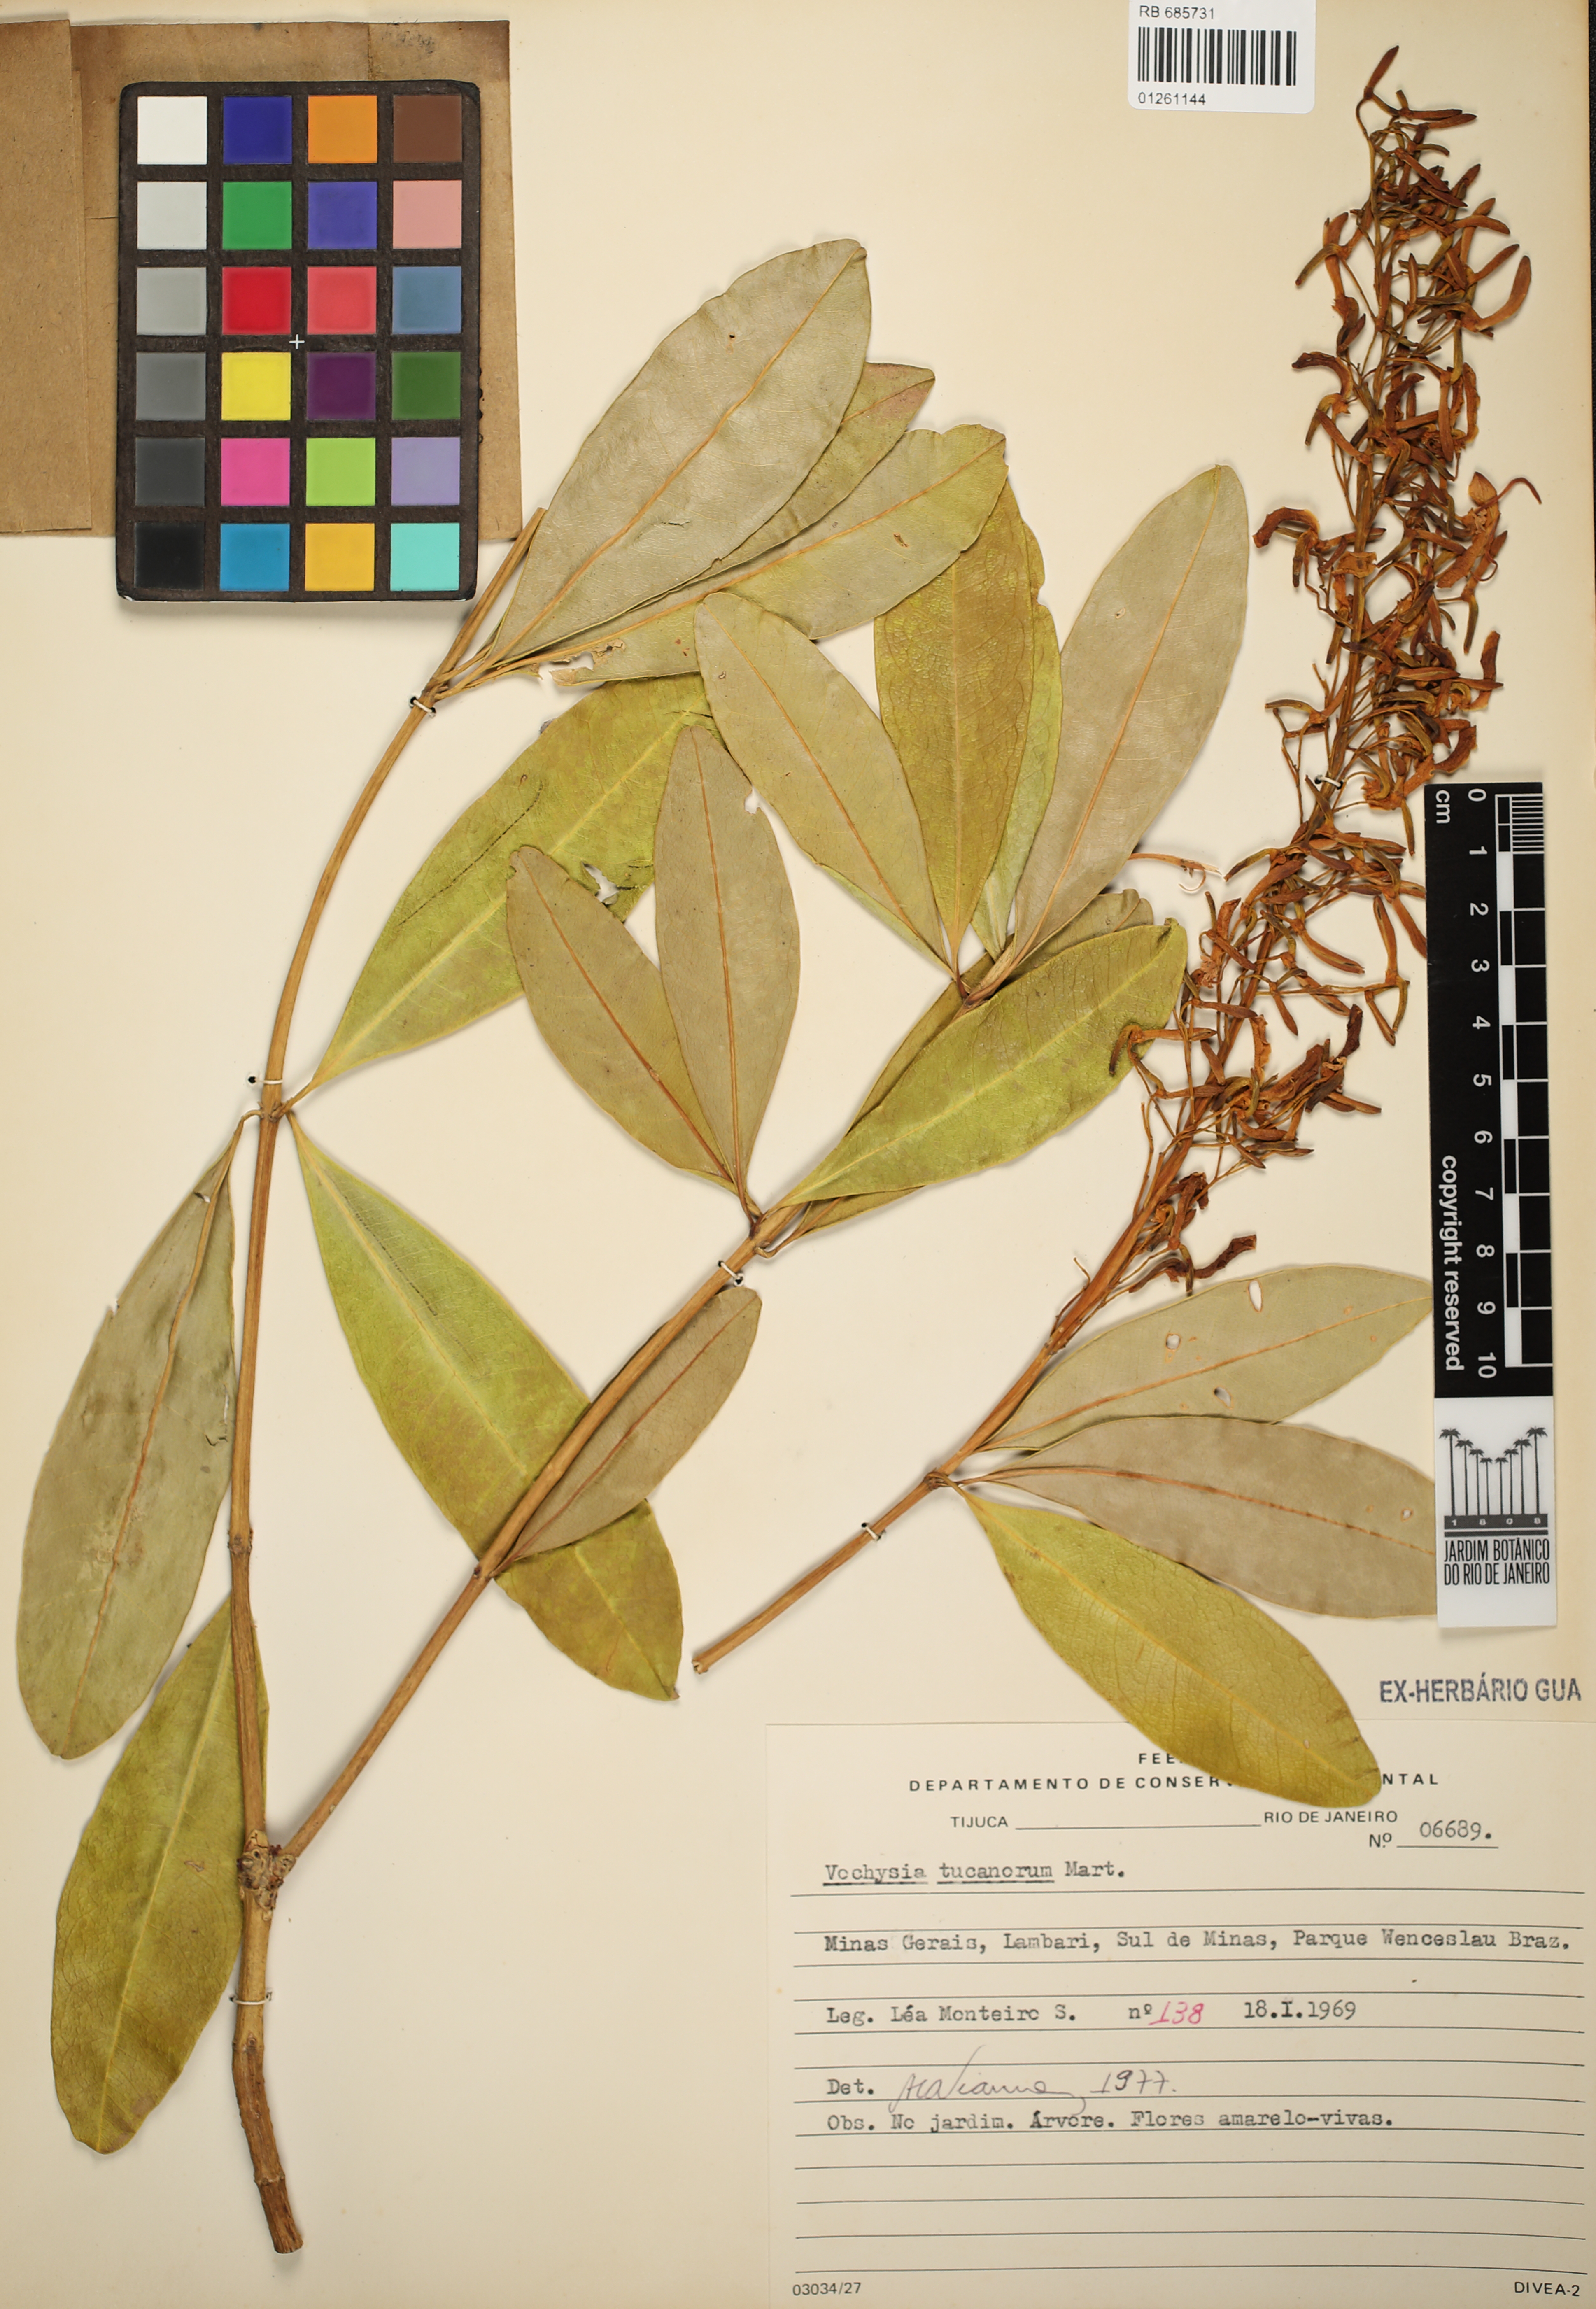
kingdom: Plantae
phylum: Tracheophyta
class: Magnoliopsida
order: Myrtales
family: Vochysiaceae
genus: Vochysia
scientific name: Vochysia tucanorum
